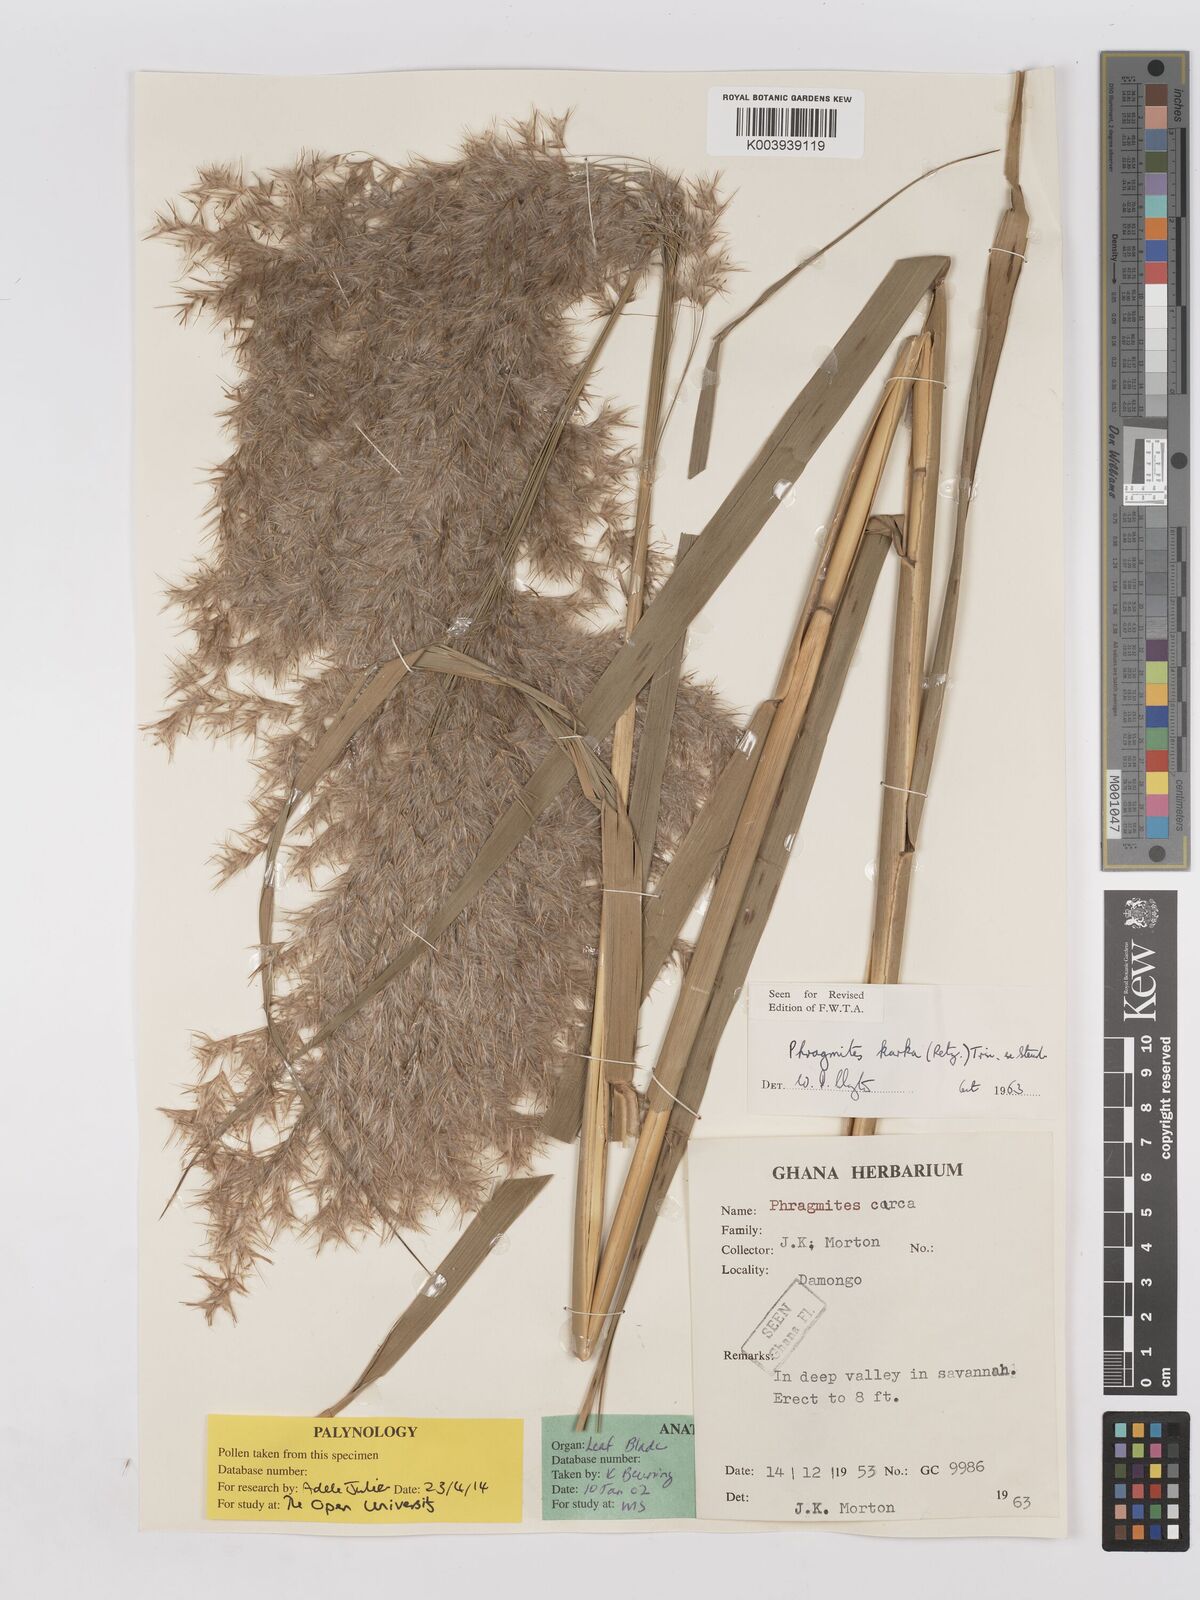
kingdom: Plantae
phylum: Tracheophyta
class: Liliopsida
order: Poales
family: Poaceae
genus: Phragmites
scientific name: Phragmites karka
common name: Tropical reed
